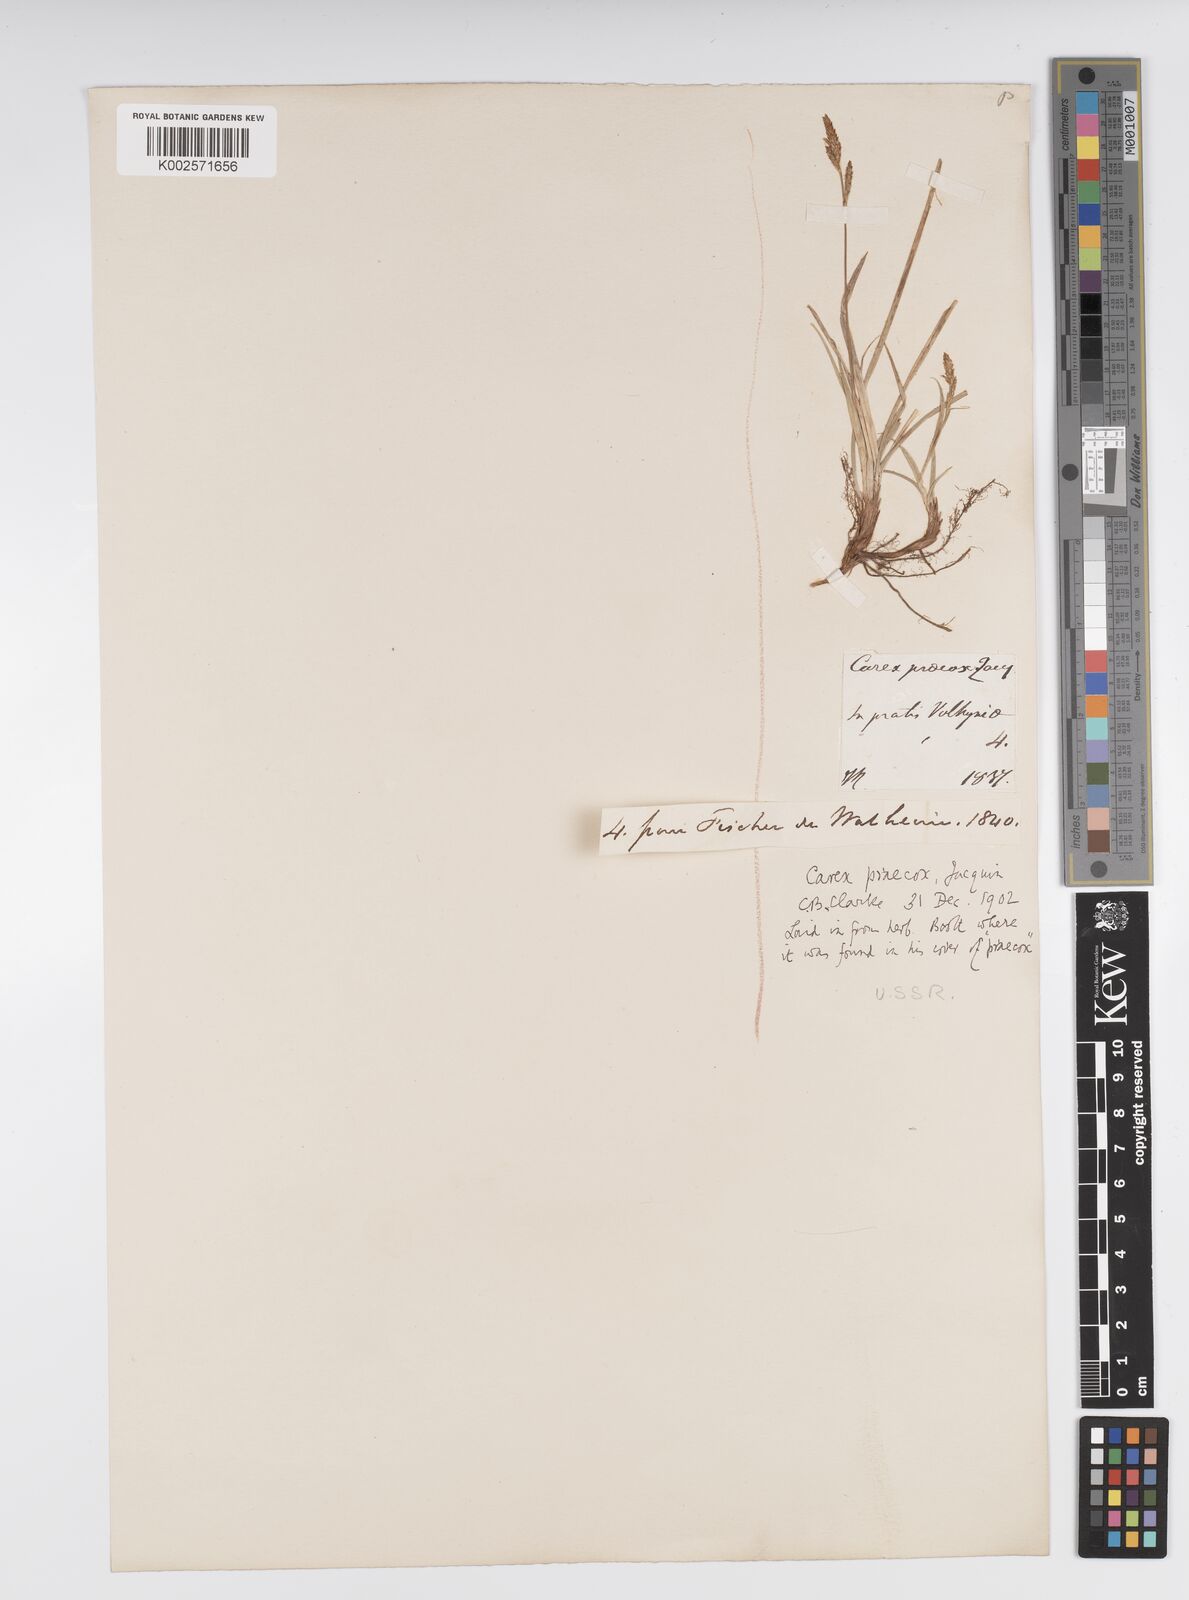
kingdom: Plantae
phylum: Tracheophyta
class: Liliopsida
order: Poales
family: Cyperaceae
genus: Carex
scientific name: Carex caryophyllea
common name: Spring sedge
